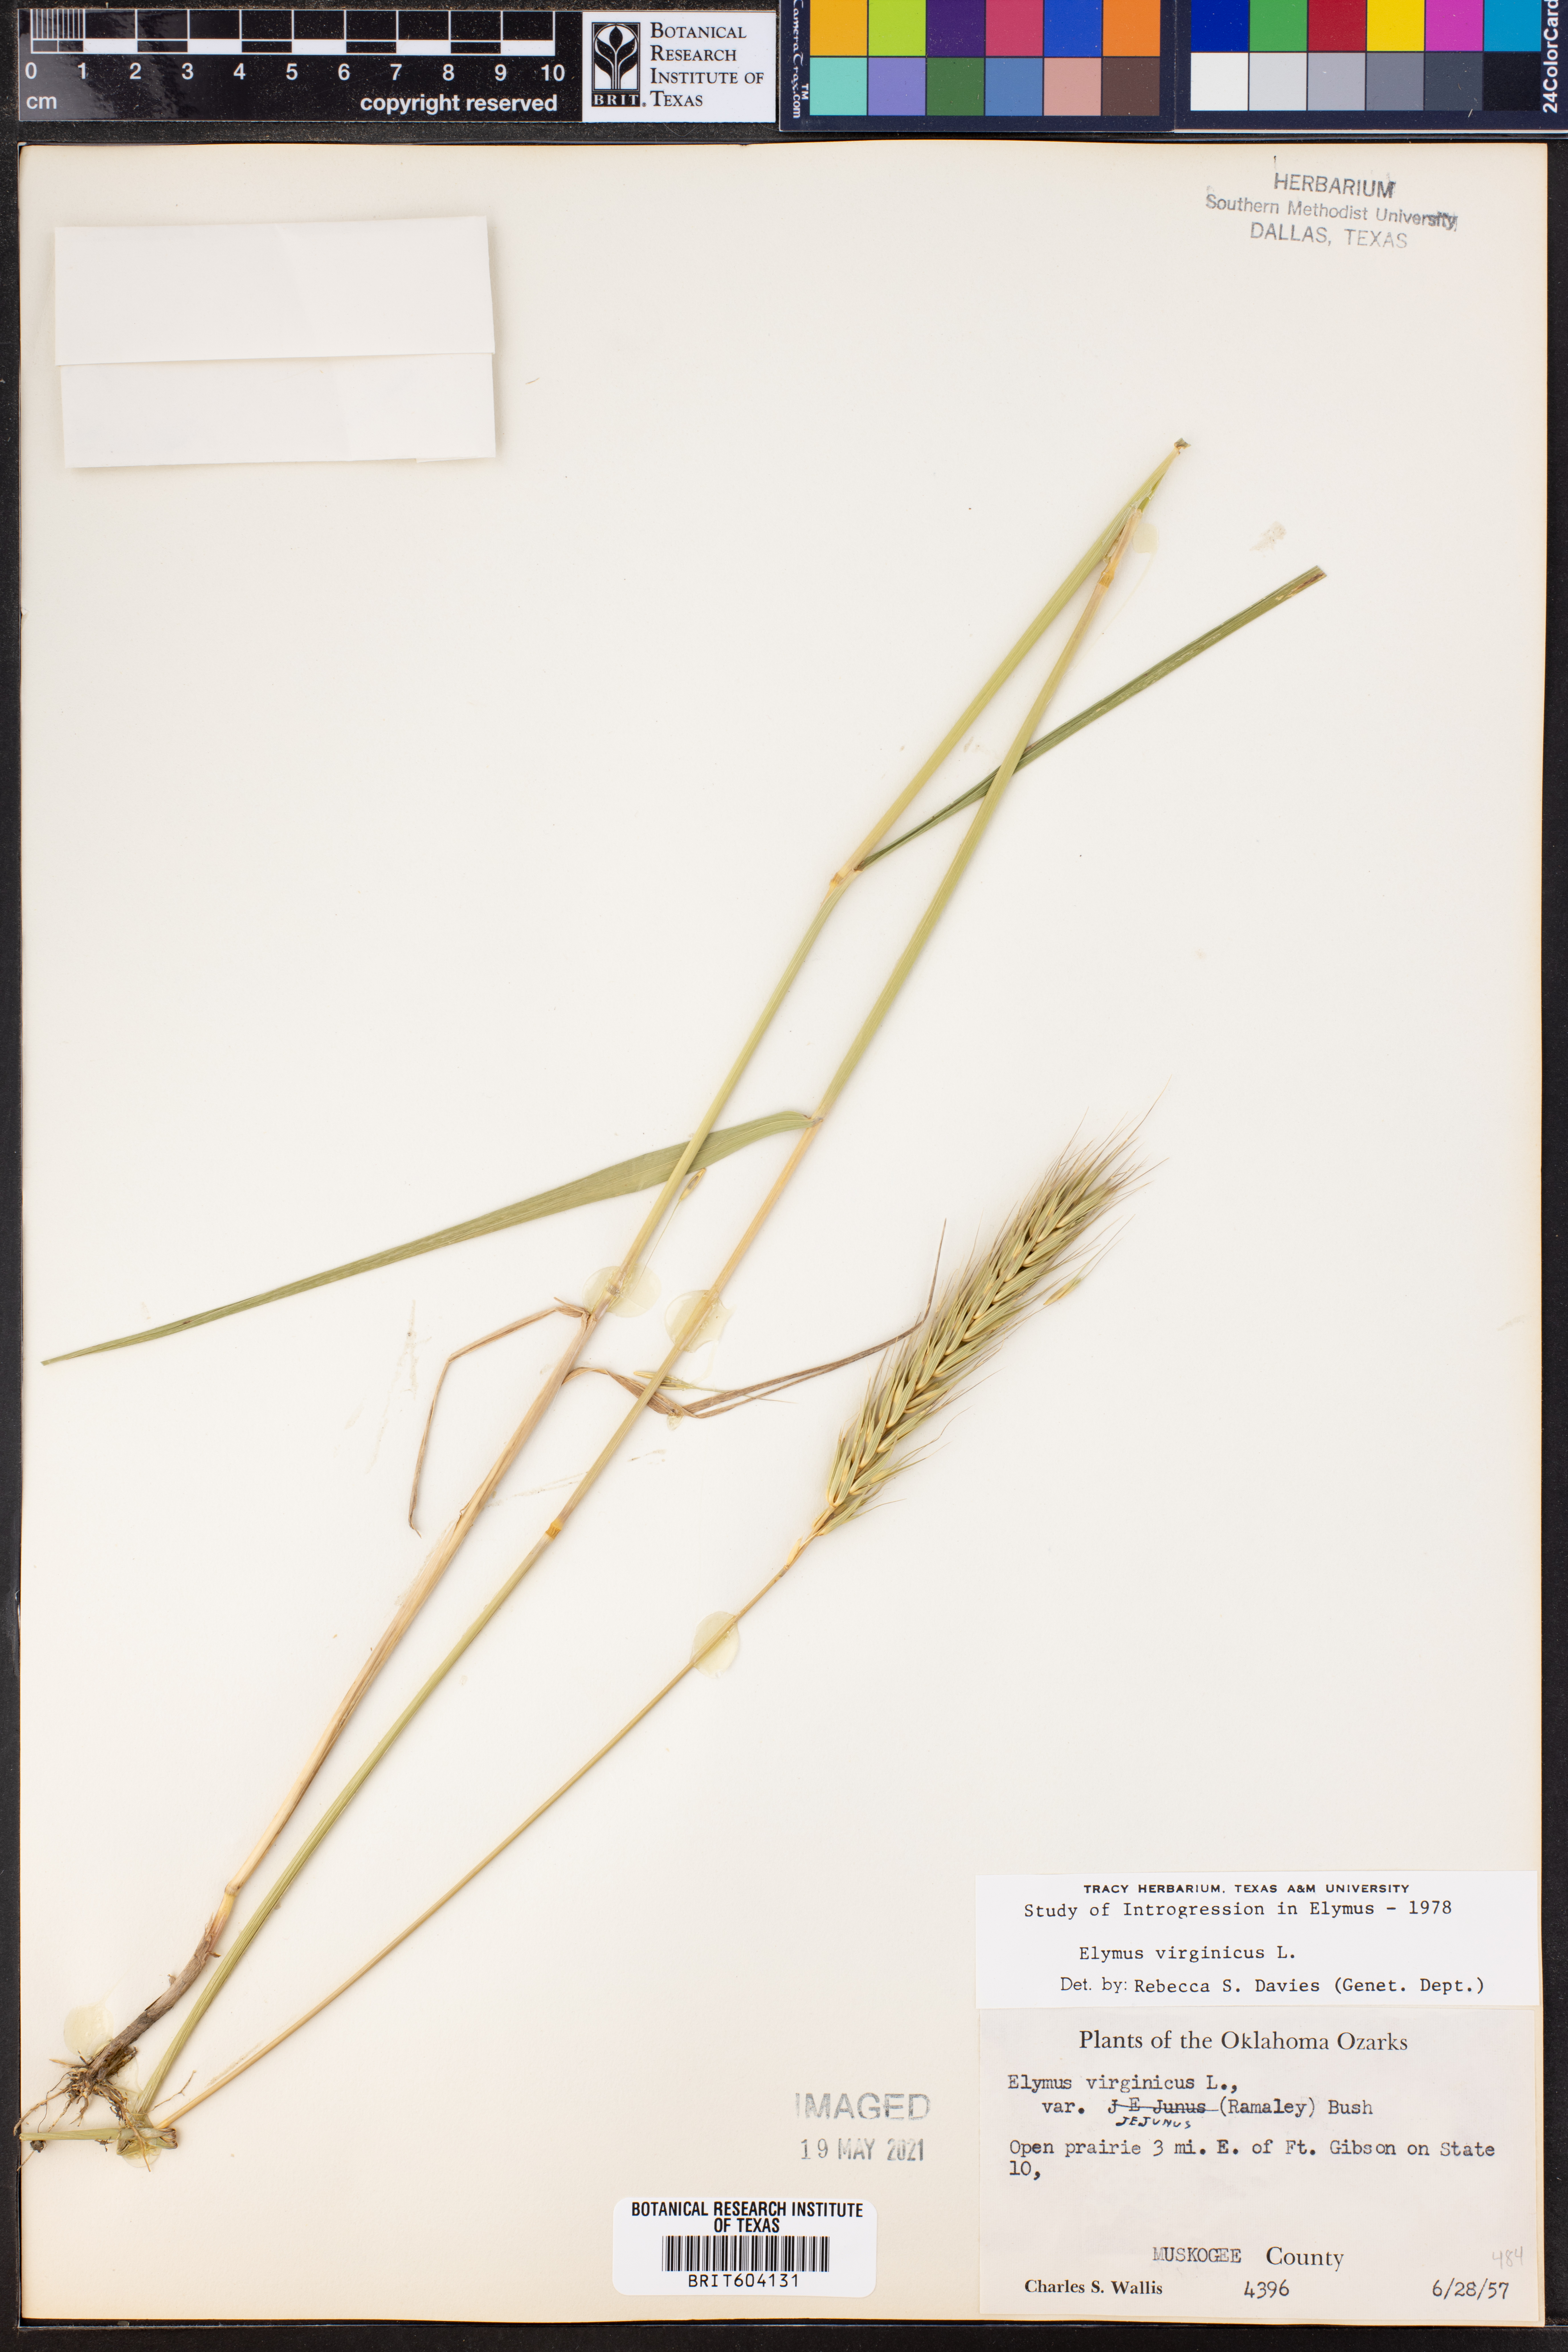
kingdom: Plantae
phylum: Tracheophyta
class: Liliopsida
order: Poales
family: Poaceae
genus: Elymus
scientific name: Elymus virginicus
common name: Common eastern wildrye
